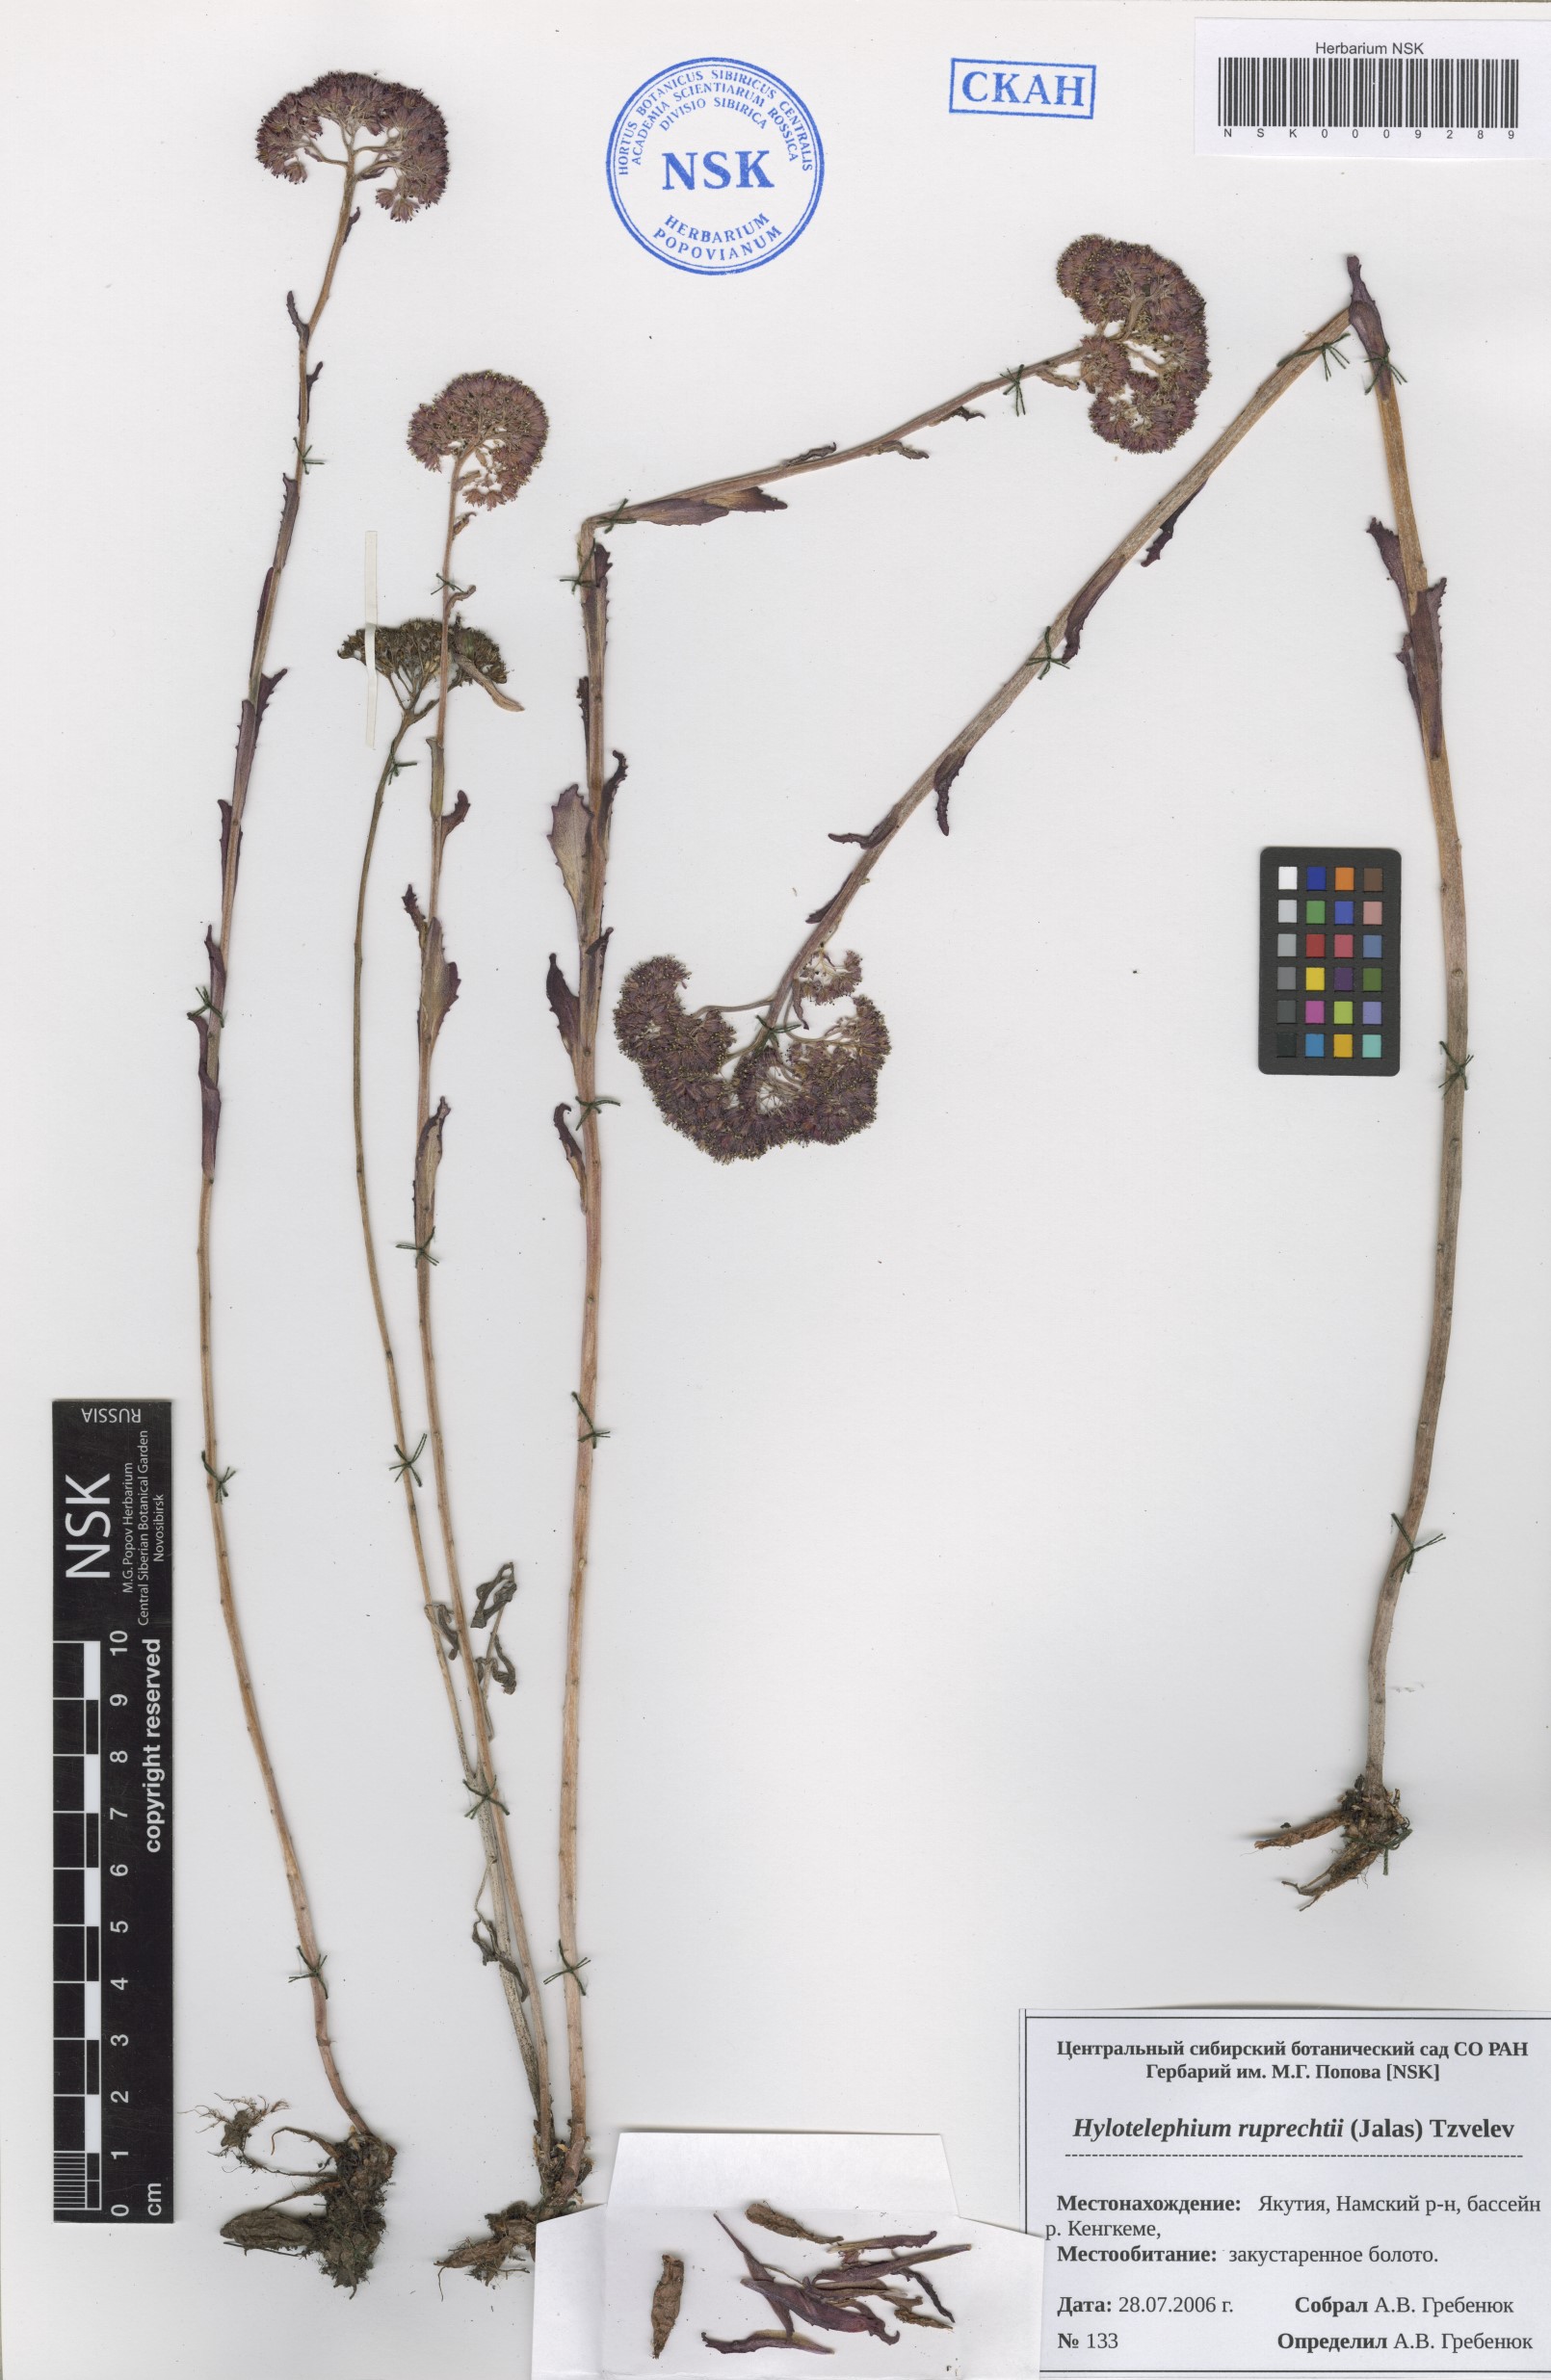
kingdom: Plantae
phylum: Tracheophyta
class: Magnoliopsida
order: Saxifragales
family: Crassulaceae
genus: Hylotelephium
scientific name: Hylotelephium maximum
